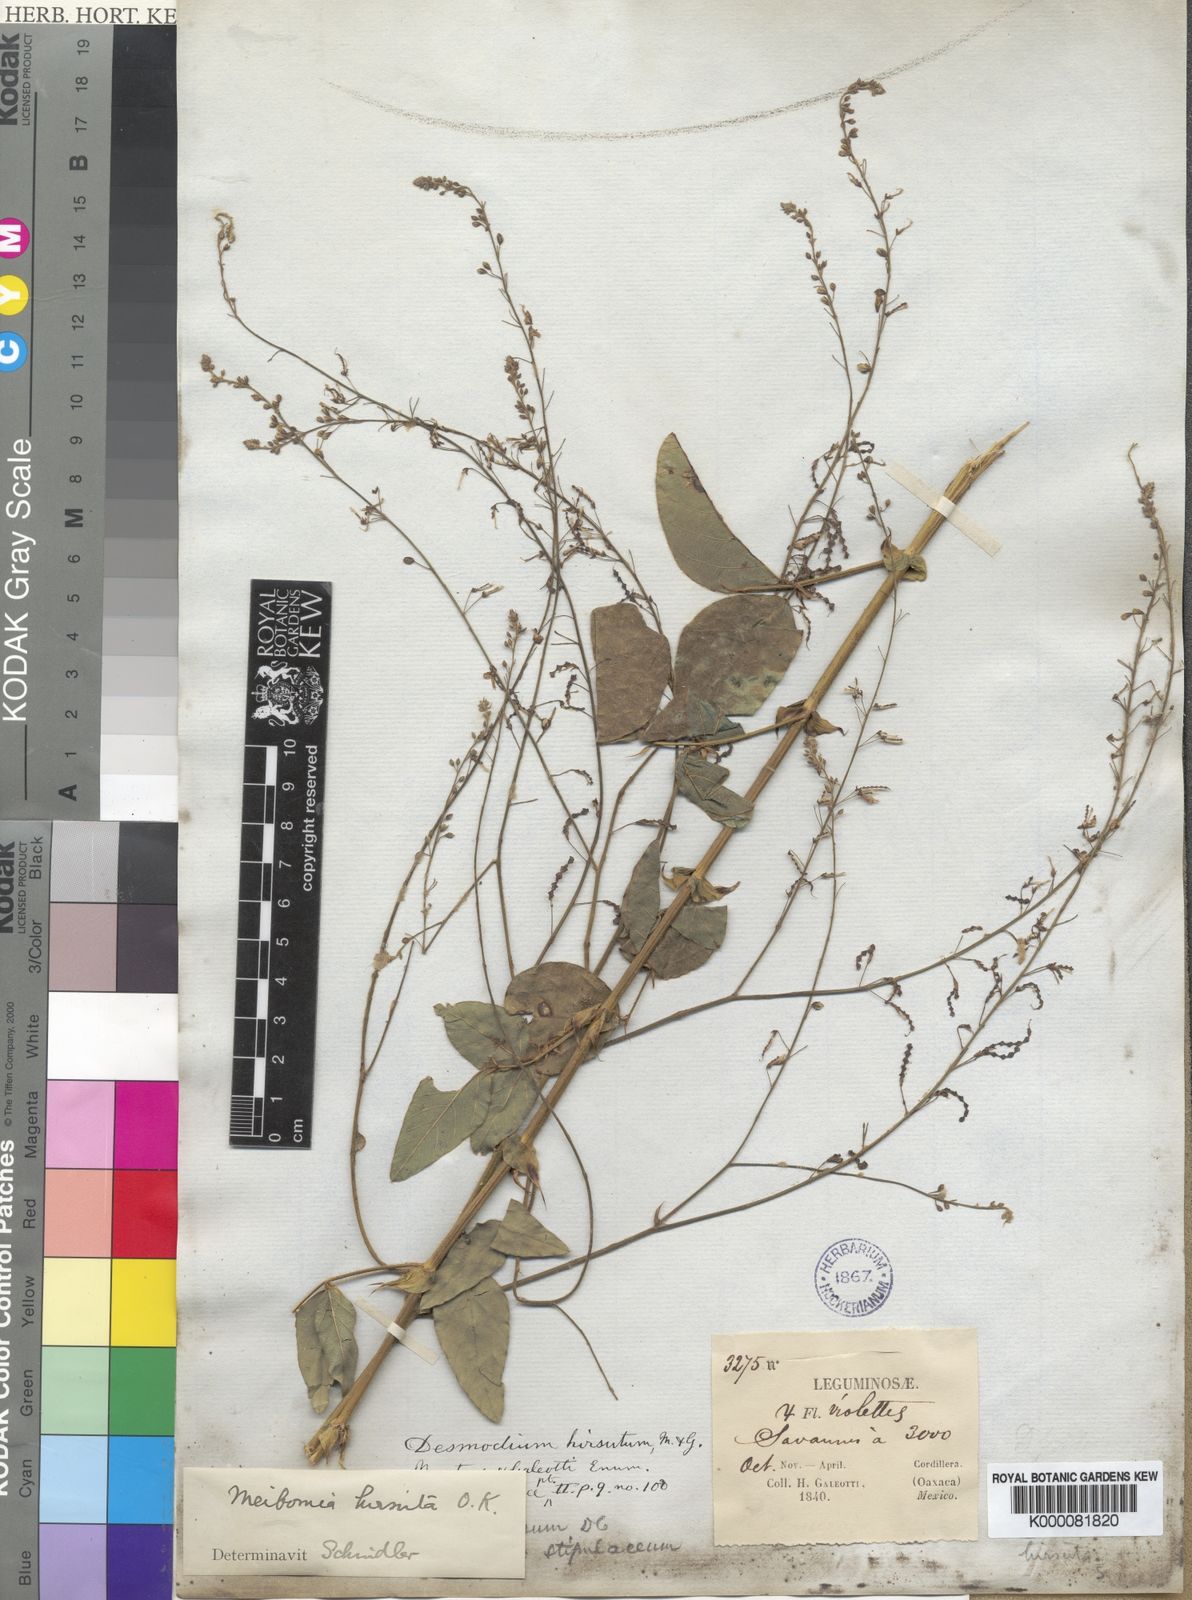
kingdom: Plantae
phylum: Tracheophyta
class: Magnoliopsida
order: Fabales
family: Fabaceae
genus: Desmodium
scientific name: Desmodium hirsutum
